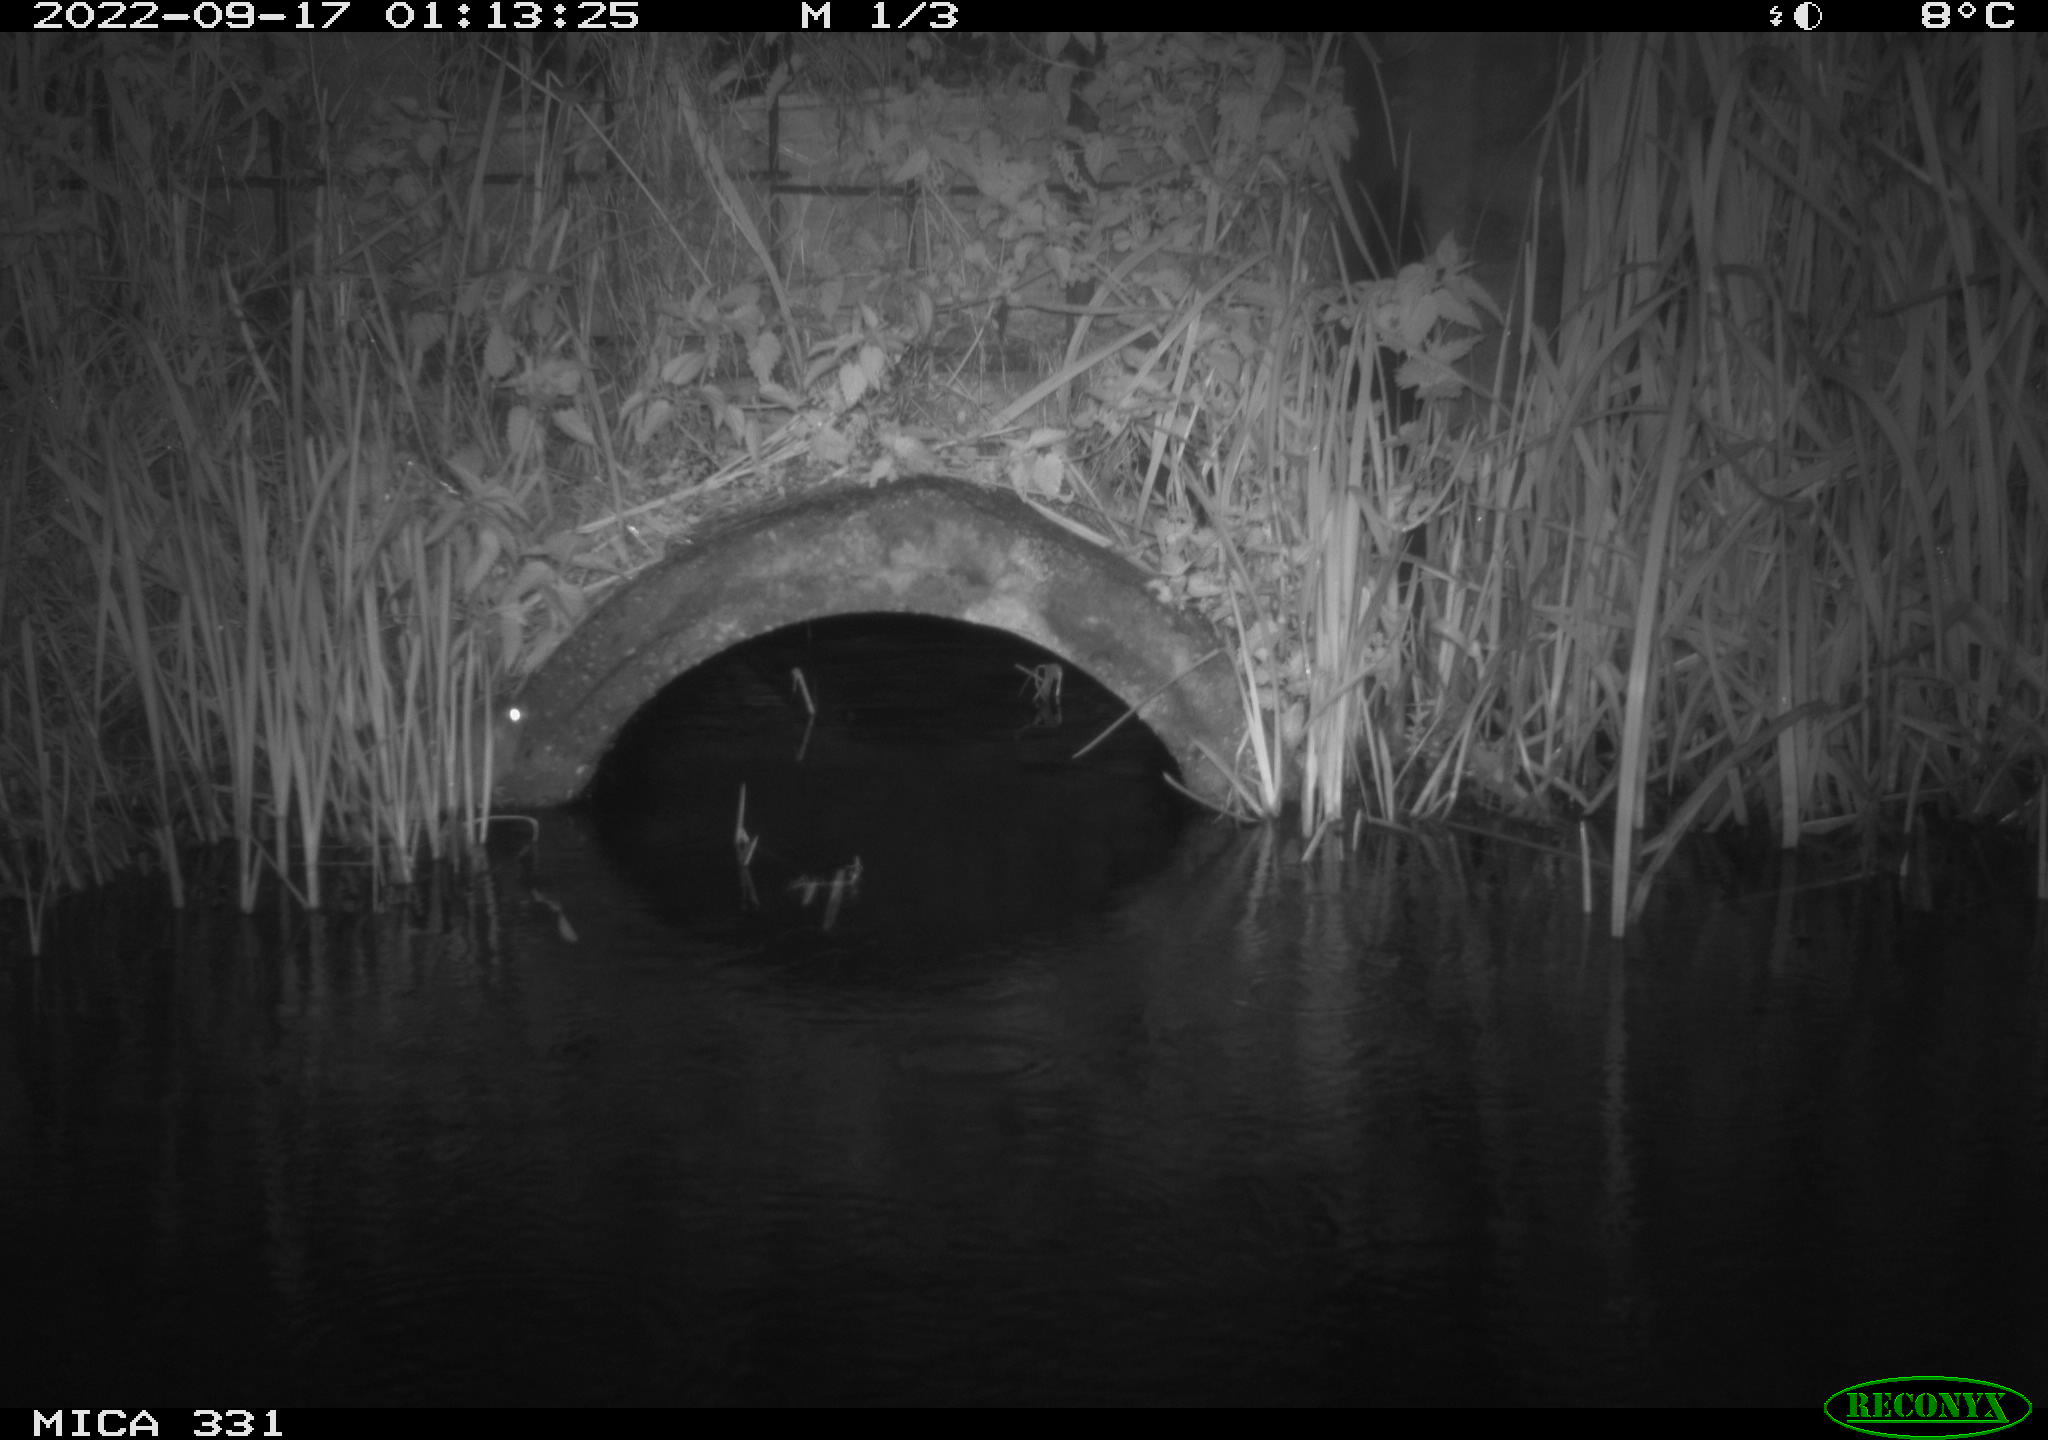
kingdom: Animalia
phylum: Chordata
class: Mammalia
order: Rodentia
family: Muridae
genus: Rattus
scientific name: Rattus norvegicus
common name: Brown rat
